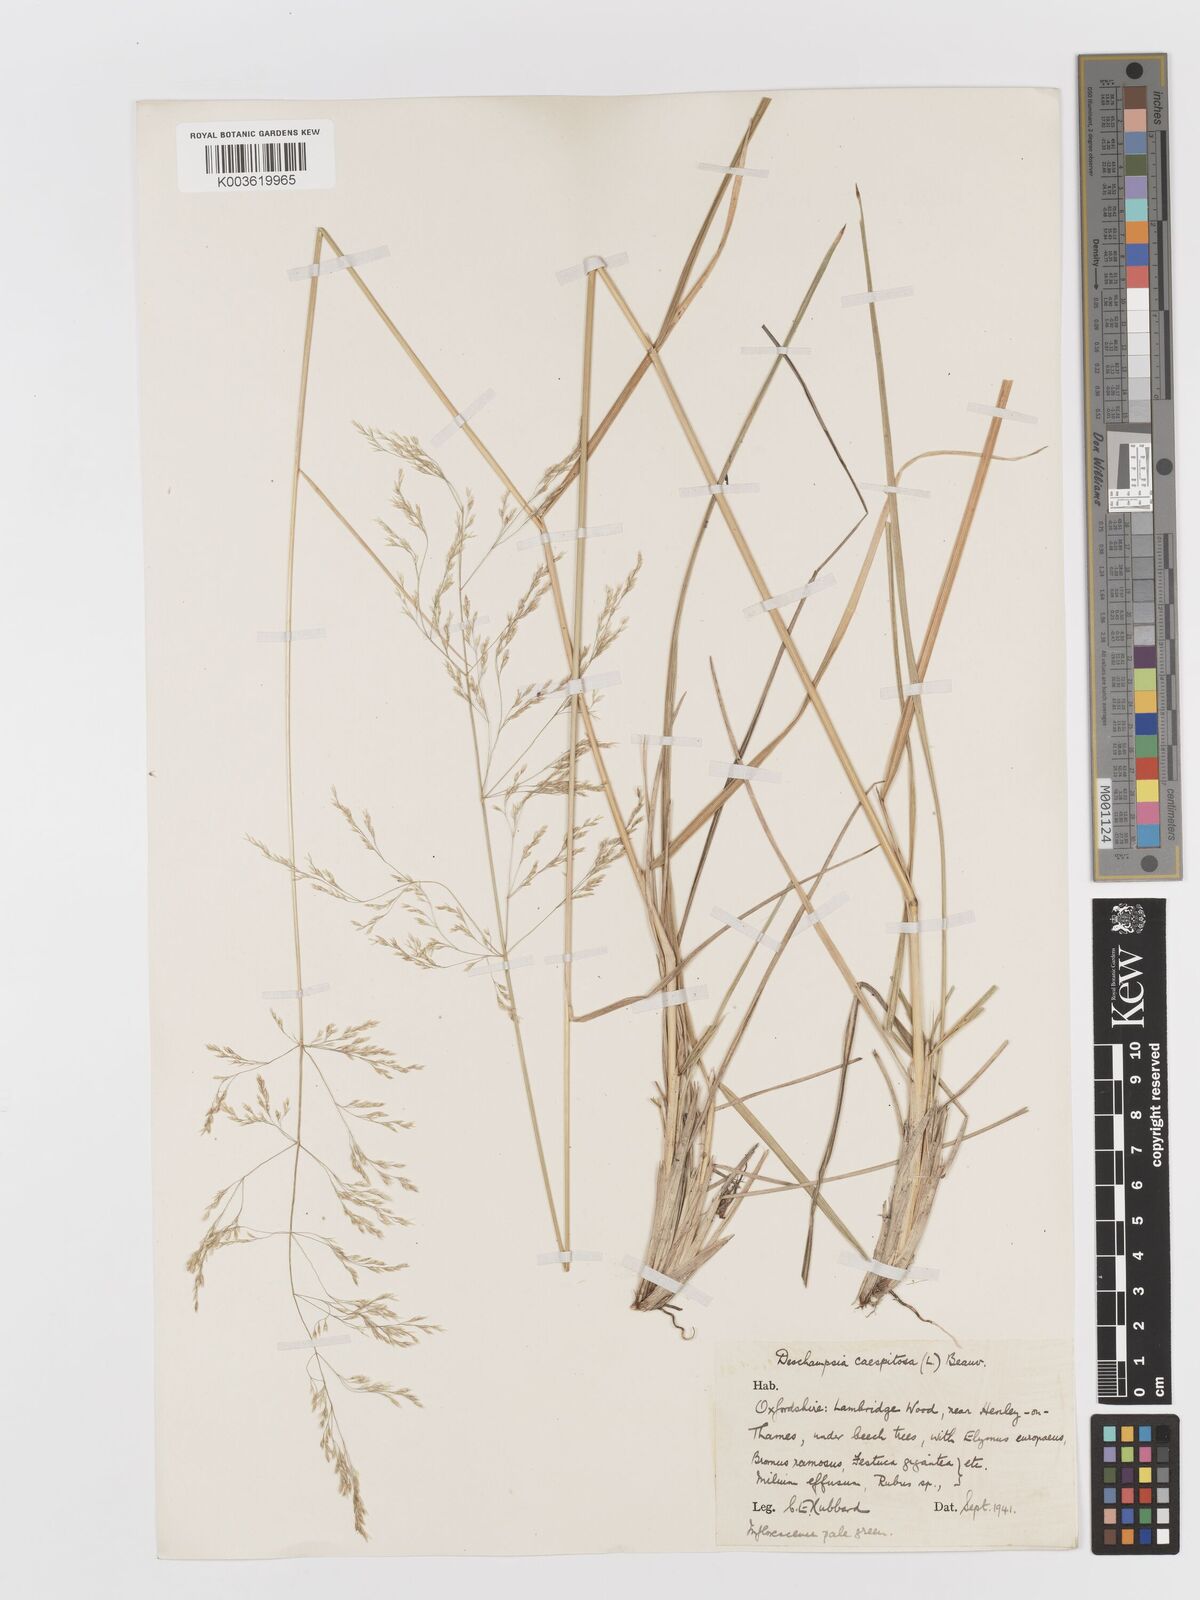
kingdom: Plantae
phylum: Tracheophyta
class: Liliopsida
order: Poales
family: Poaceae
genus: Deschampsia
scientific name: Deschampsia cespitosa
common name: Tufted hair-grass
